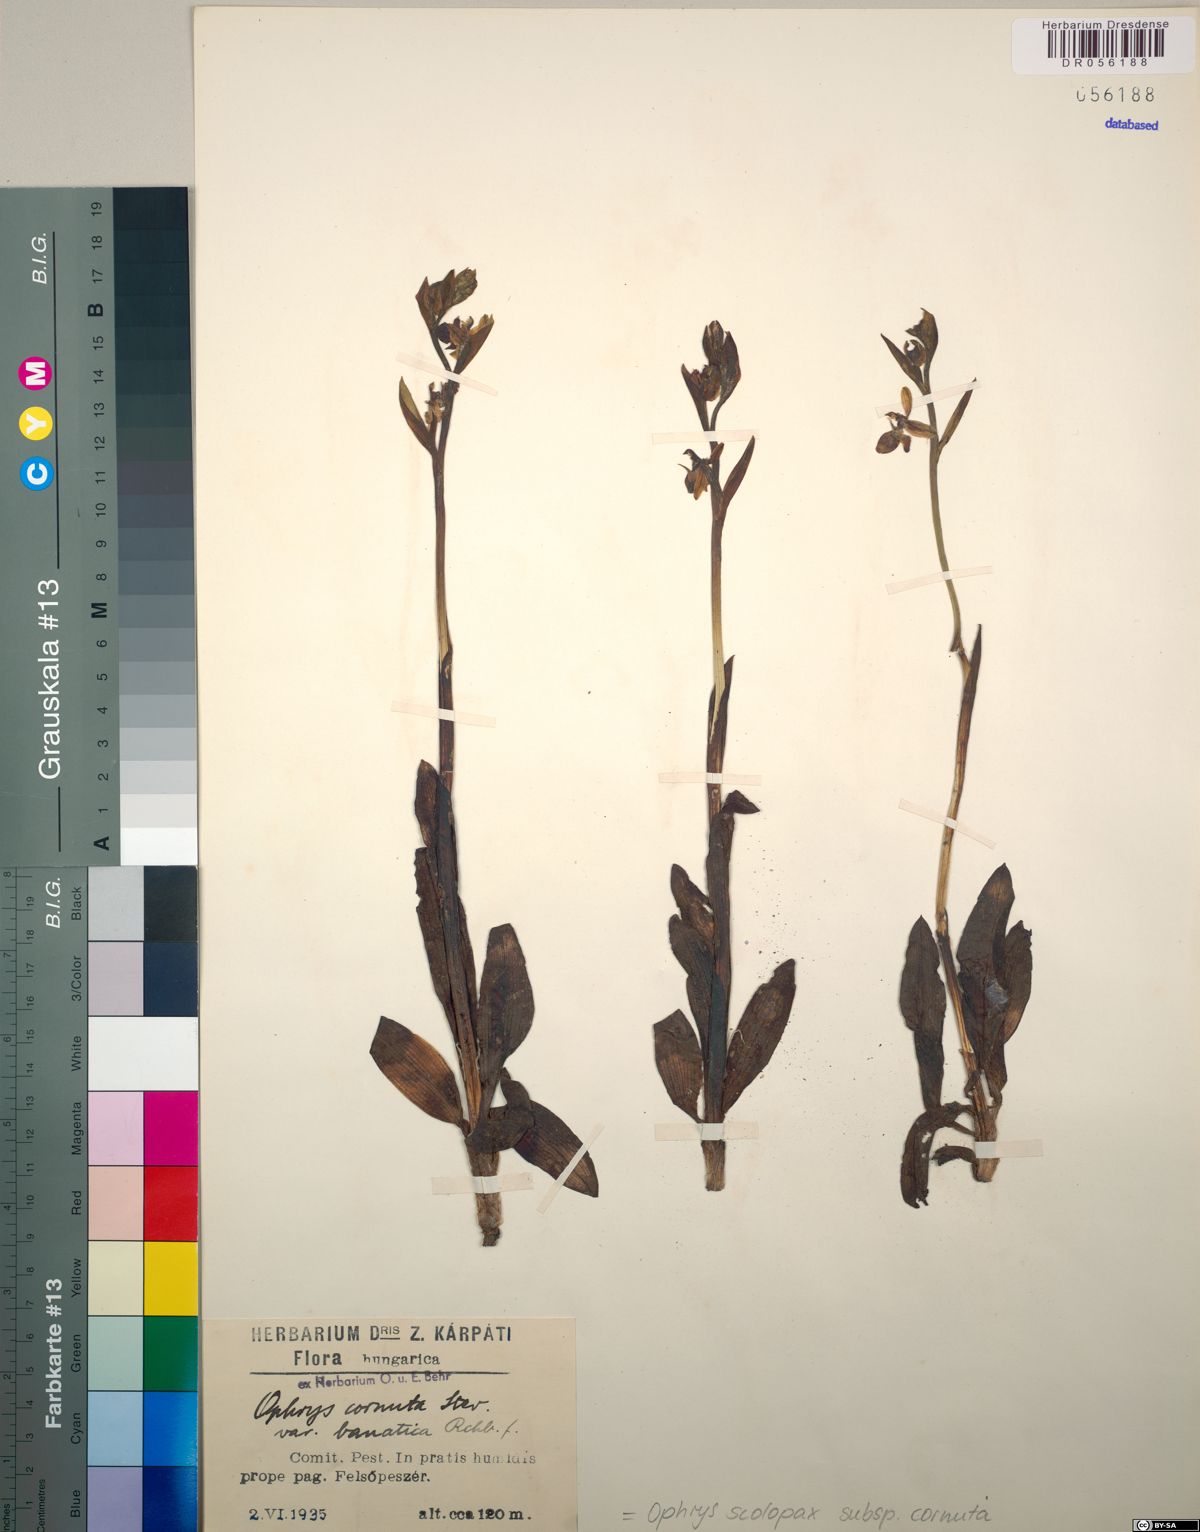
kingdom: Plantae
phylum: Tracheophyta
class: Liliopsida
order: Asparagales
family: Orchidaceae
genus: Ophrys
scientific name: Ophrys scolopax
